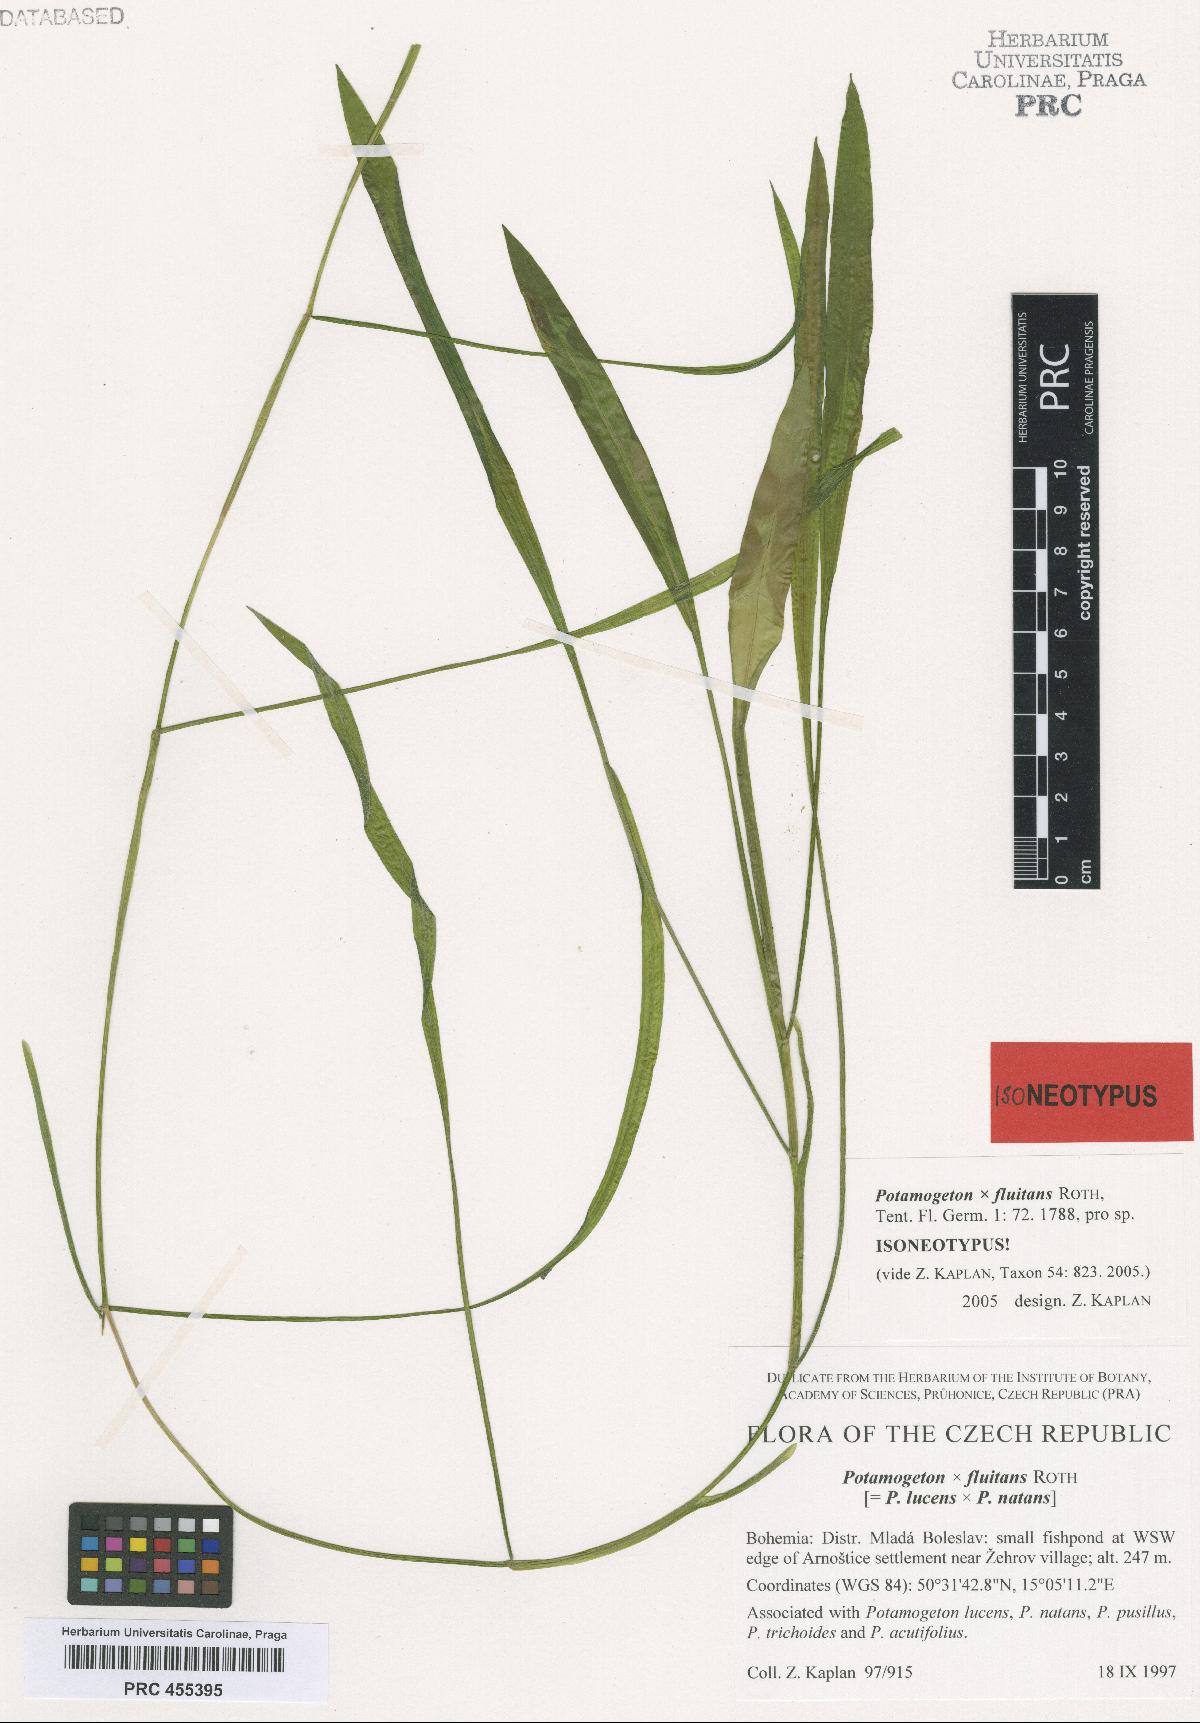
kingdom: Plantae
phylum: Tracheophyta
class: Liliopsida
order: Alismatales
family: Potamogetonaceae
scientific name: Potamogetonaceae
